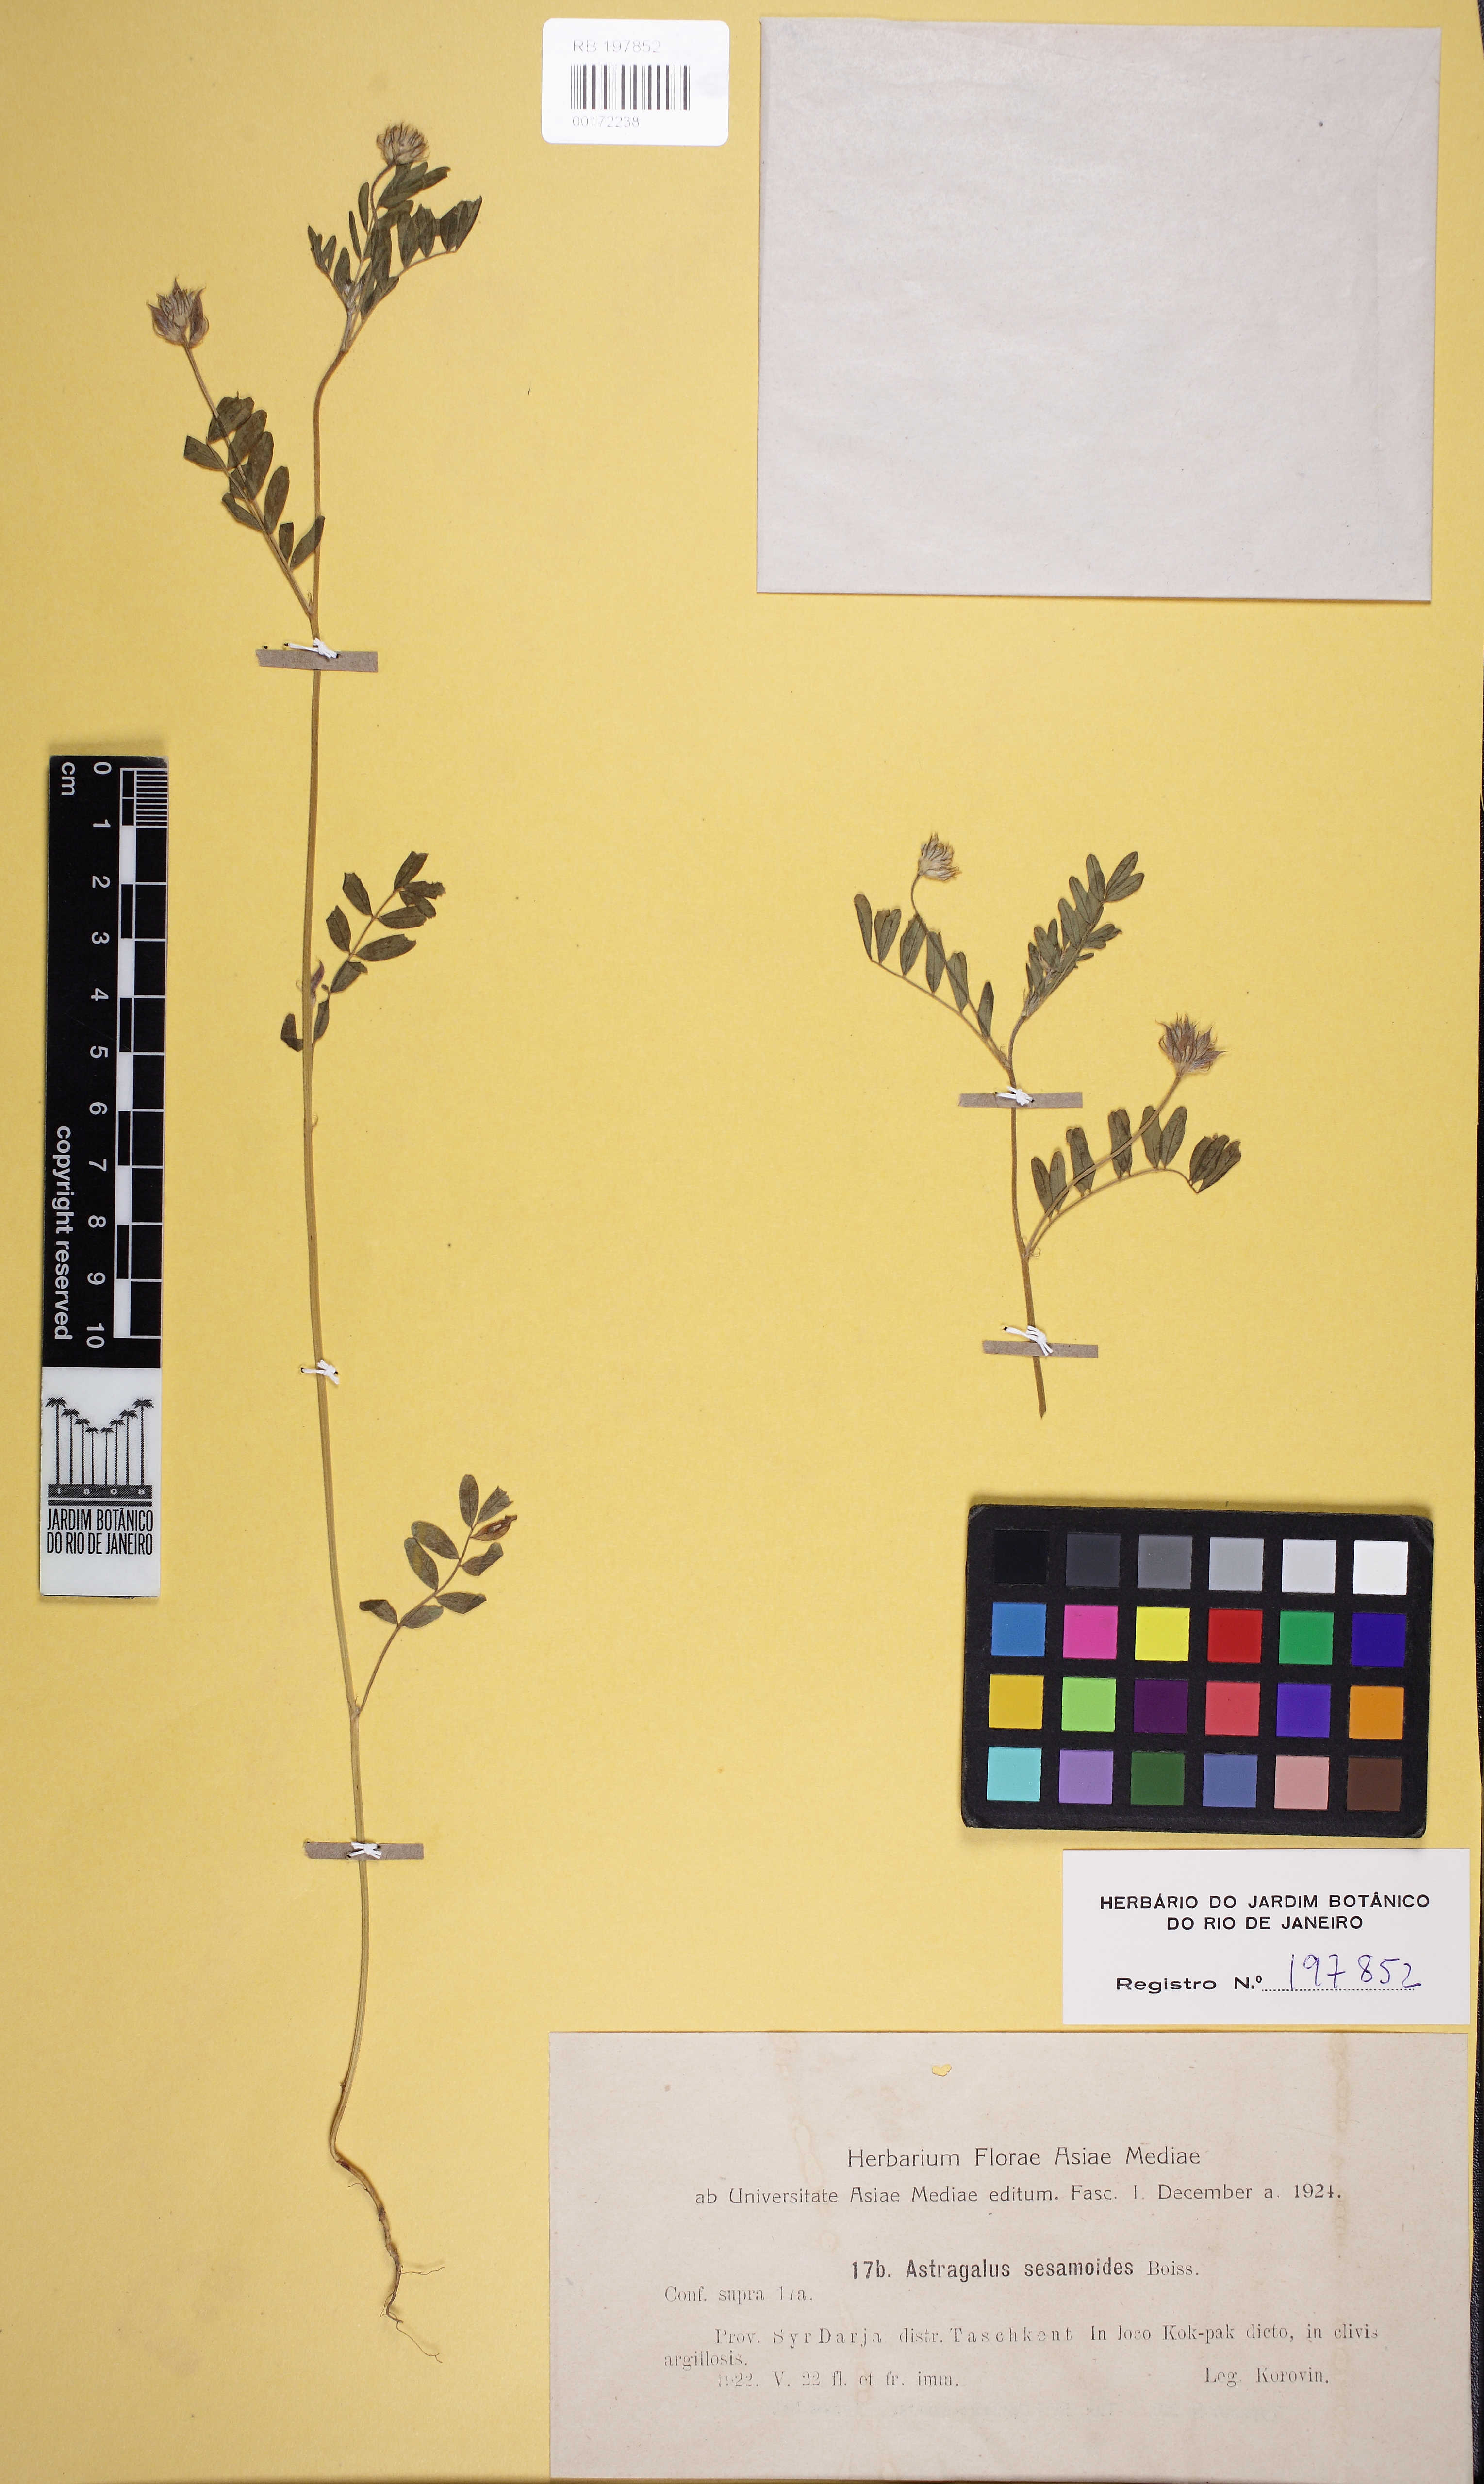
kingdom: Plantae
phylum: Tracheophyta
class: Magnoliopsida
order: Fabales
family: Fabaceae
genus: Astragalus
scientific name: Astragalus sesamoides
